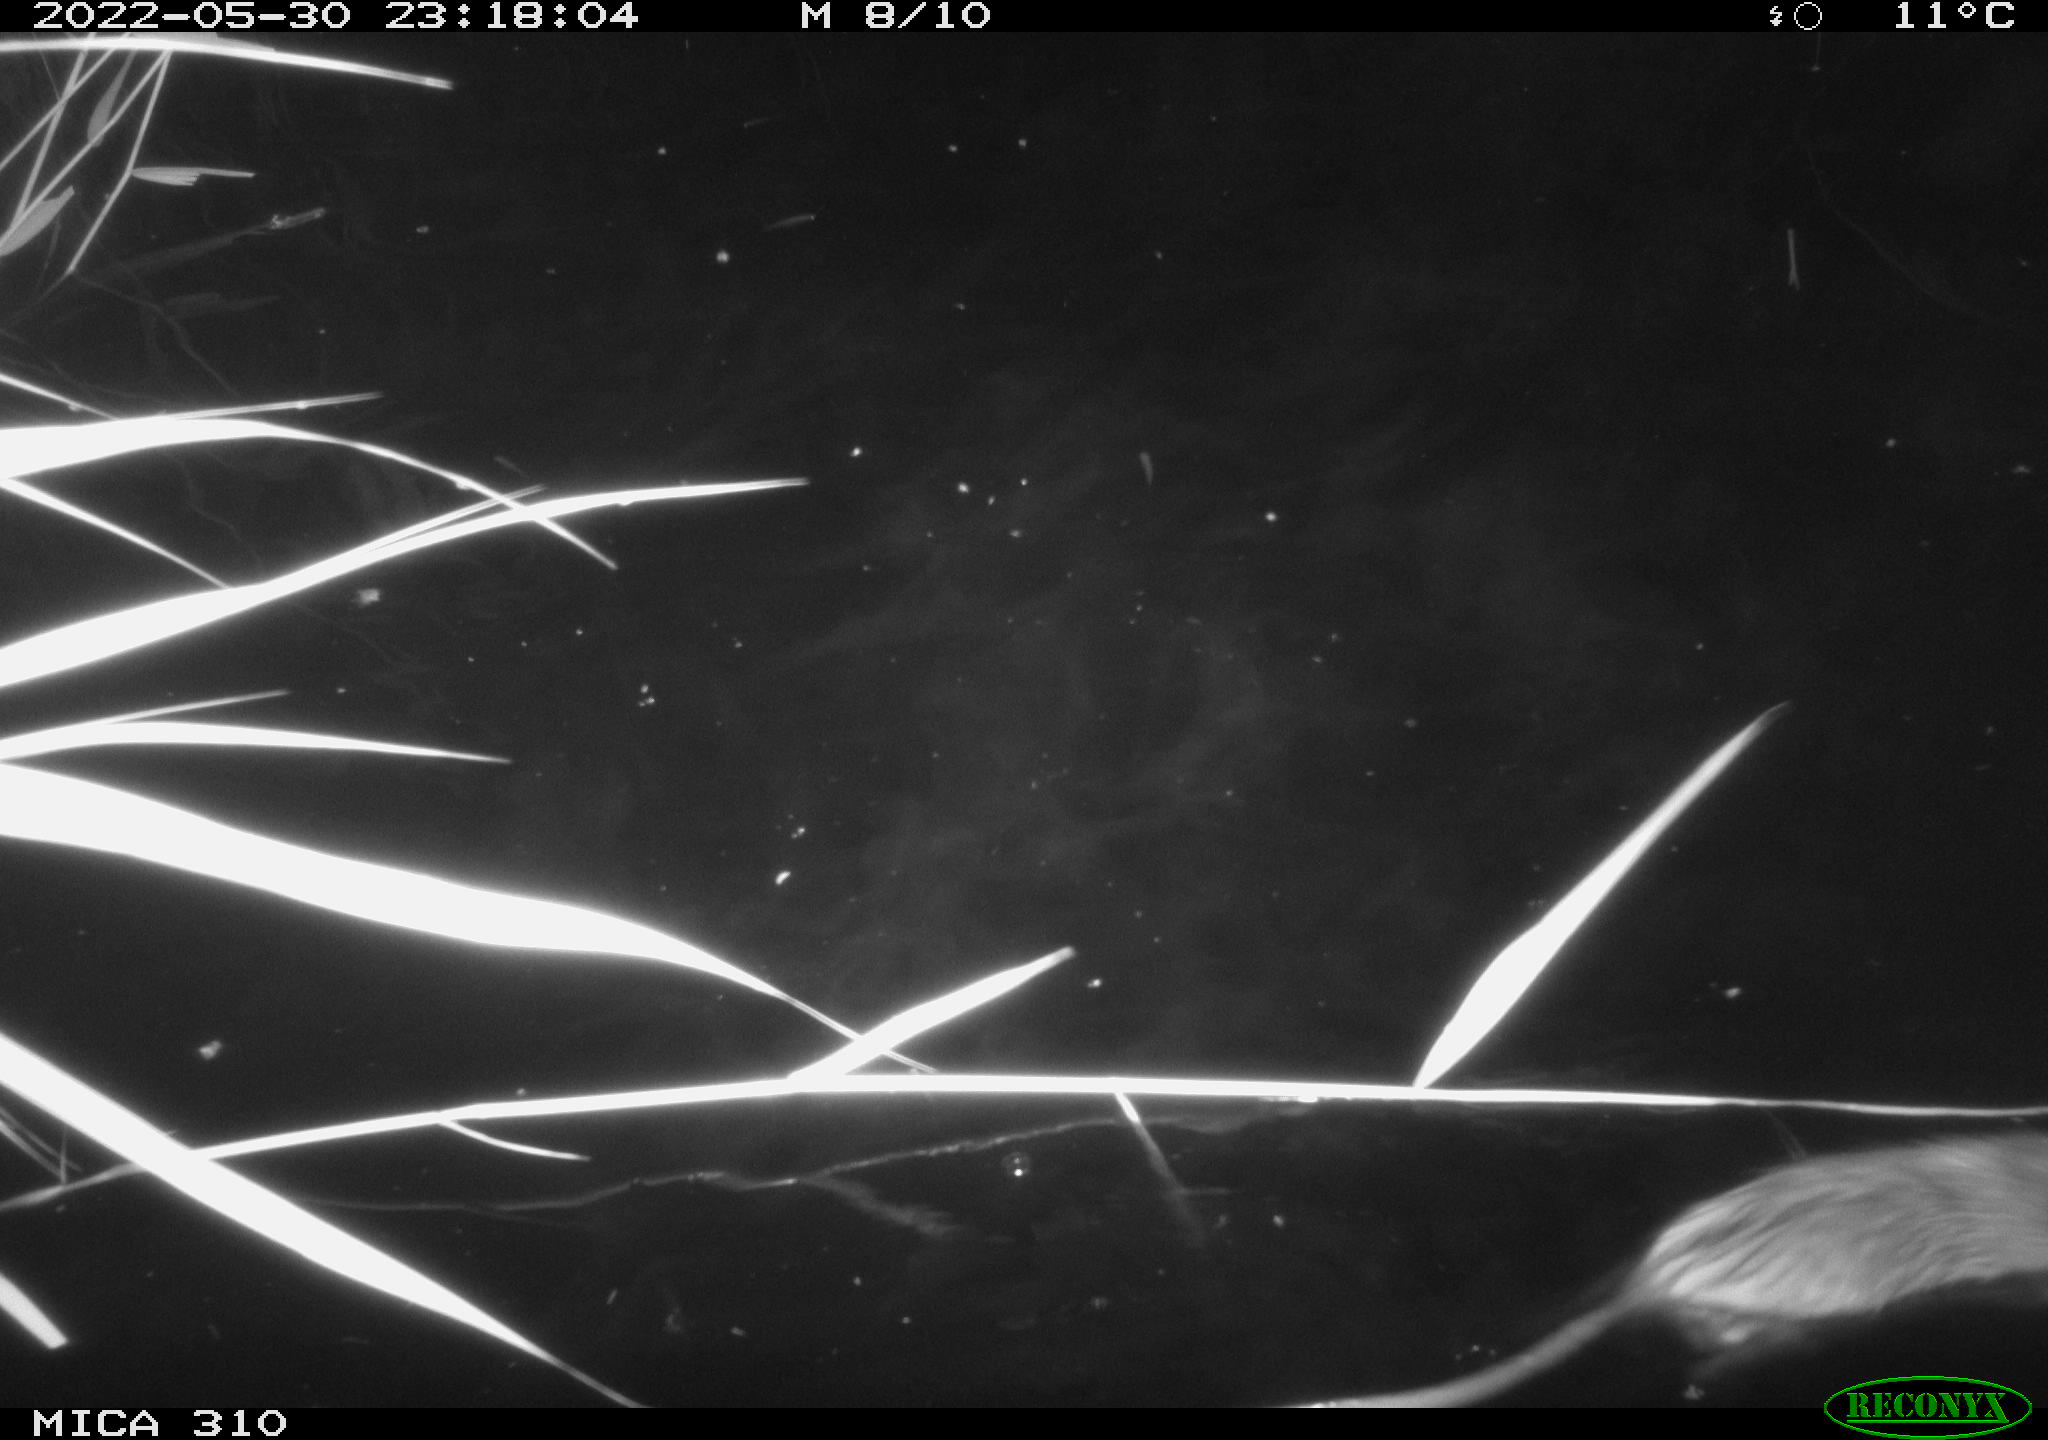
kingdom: Animalia
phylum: Chordata
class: Mammalia
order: Rodentia
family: Cricetidae
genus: Ondatra
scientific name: Ondatra zibethicus
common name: Muskrat
